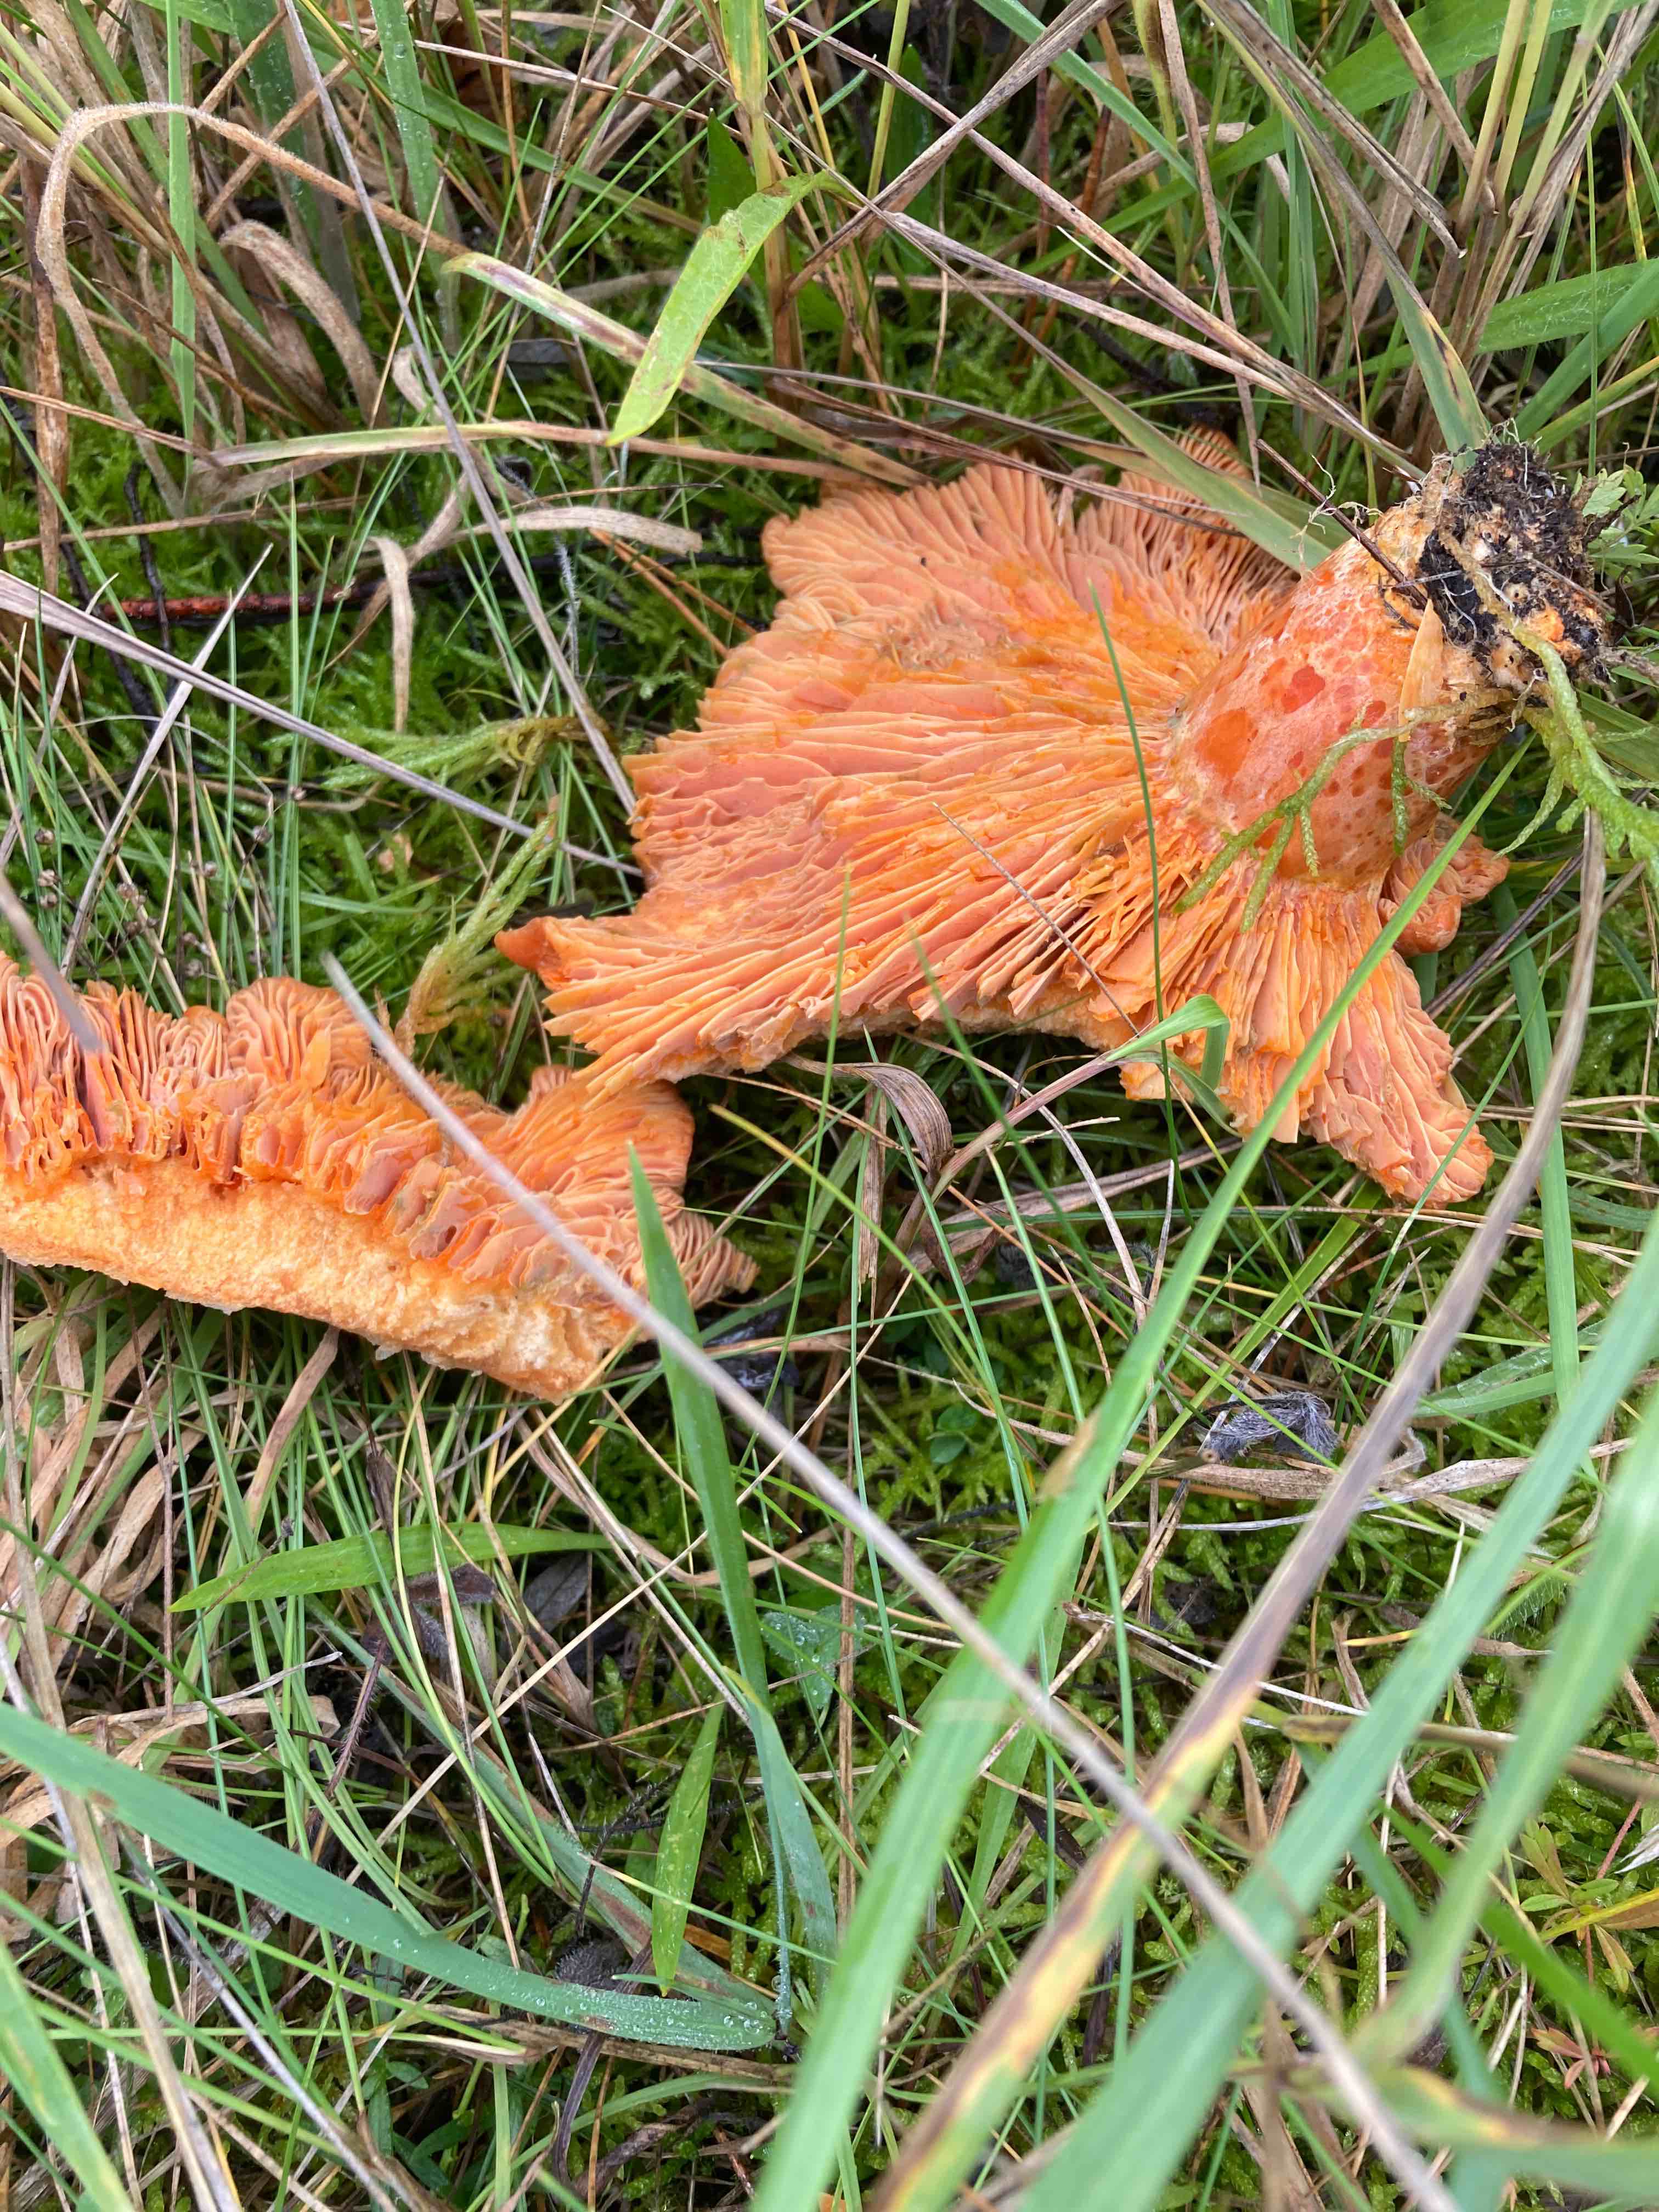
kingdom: Fungi
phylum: Basidiomycota
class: Agaricomycetes
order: Russulales
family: Russulaceae
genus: Lactarius
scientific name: Lactarius deliciosus
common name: velsmagende mælkehat
